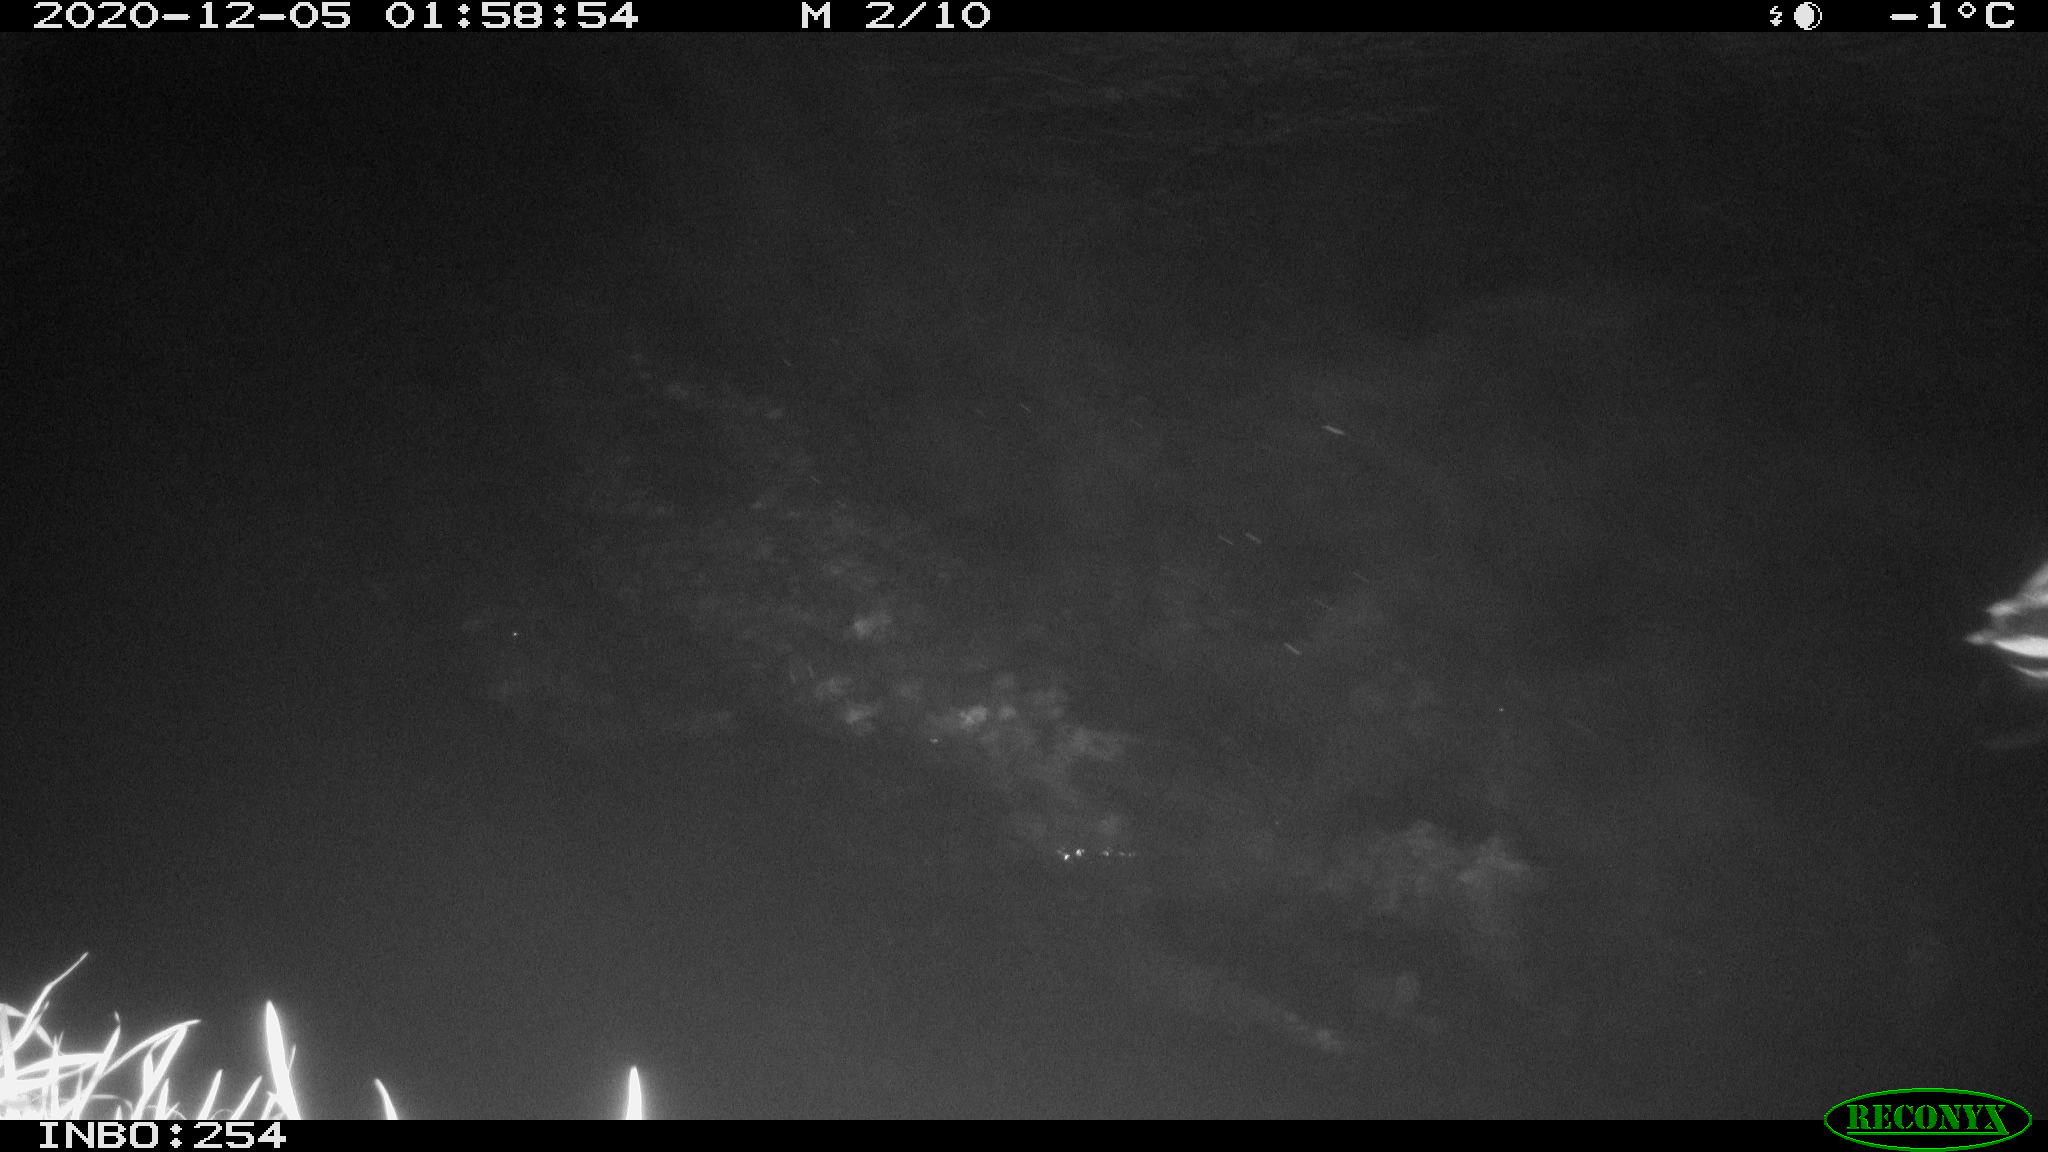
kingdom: Animalia
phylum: Chordata
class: Aves
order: Anseriformes
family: Anatidae
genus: Anas
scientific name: Anas platyrhynchos
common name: Mallard
